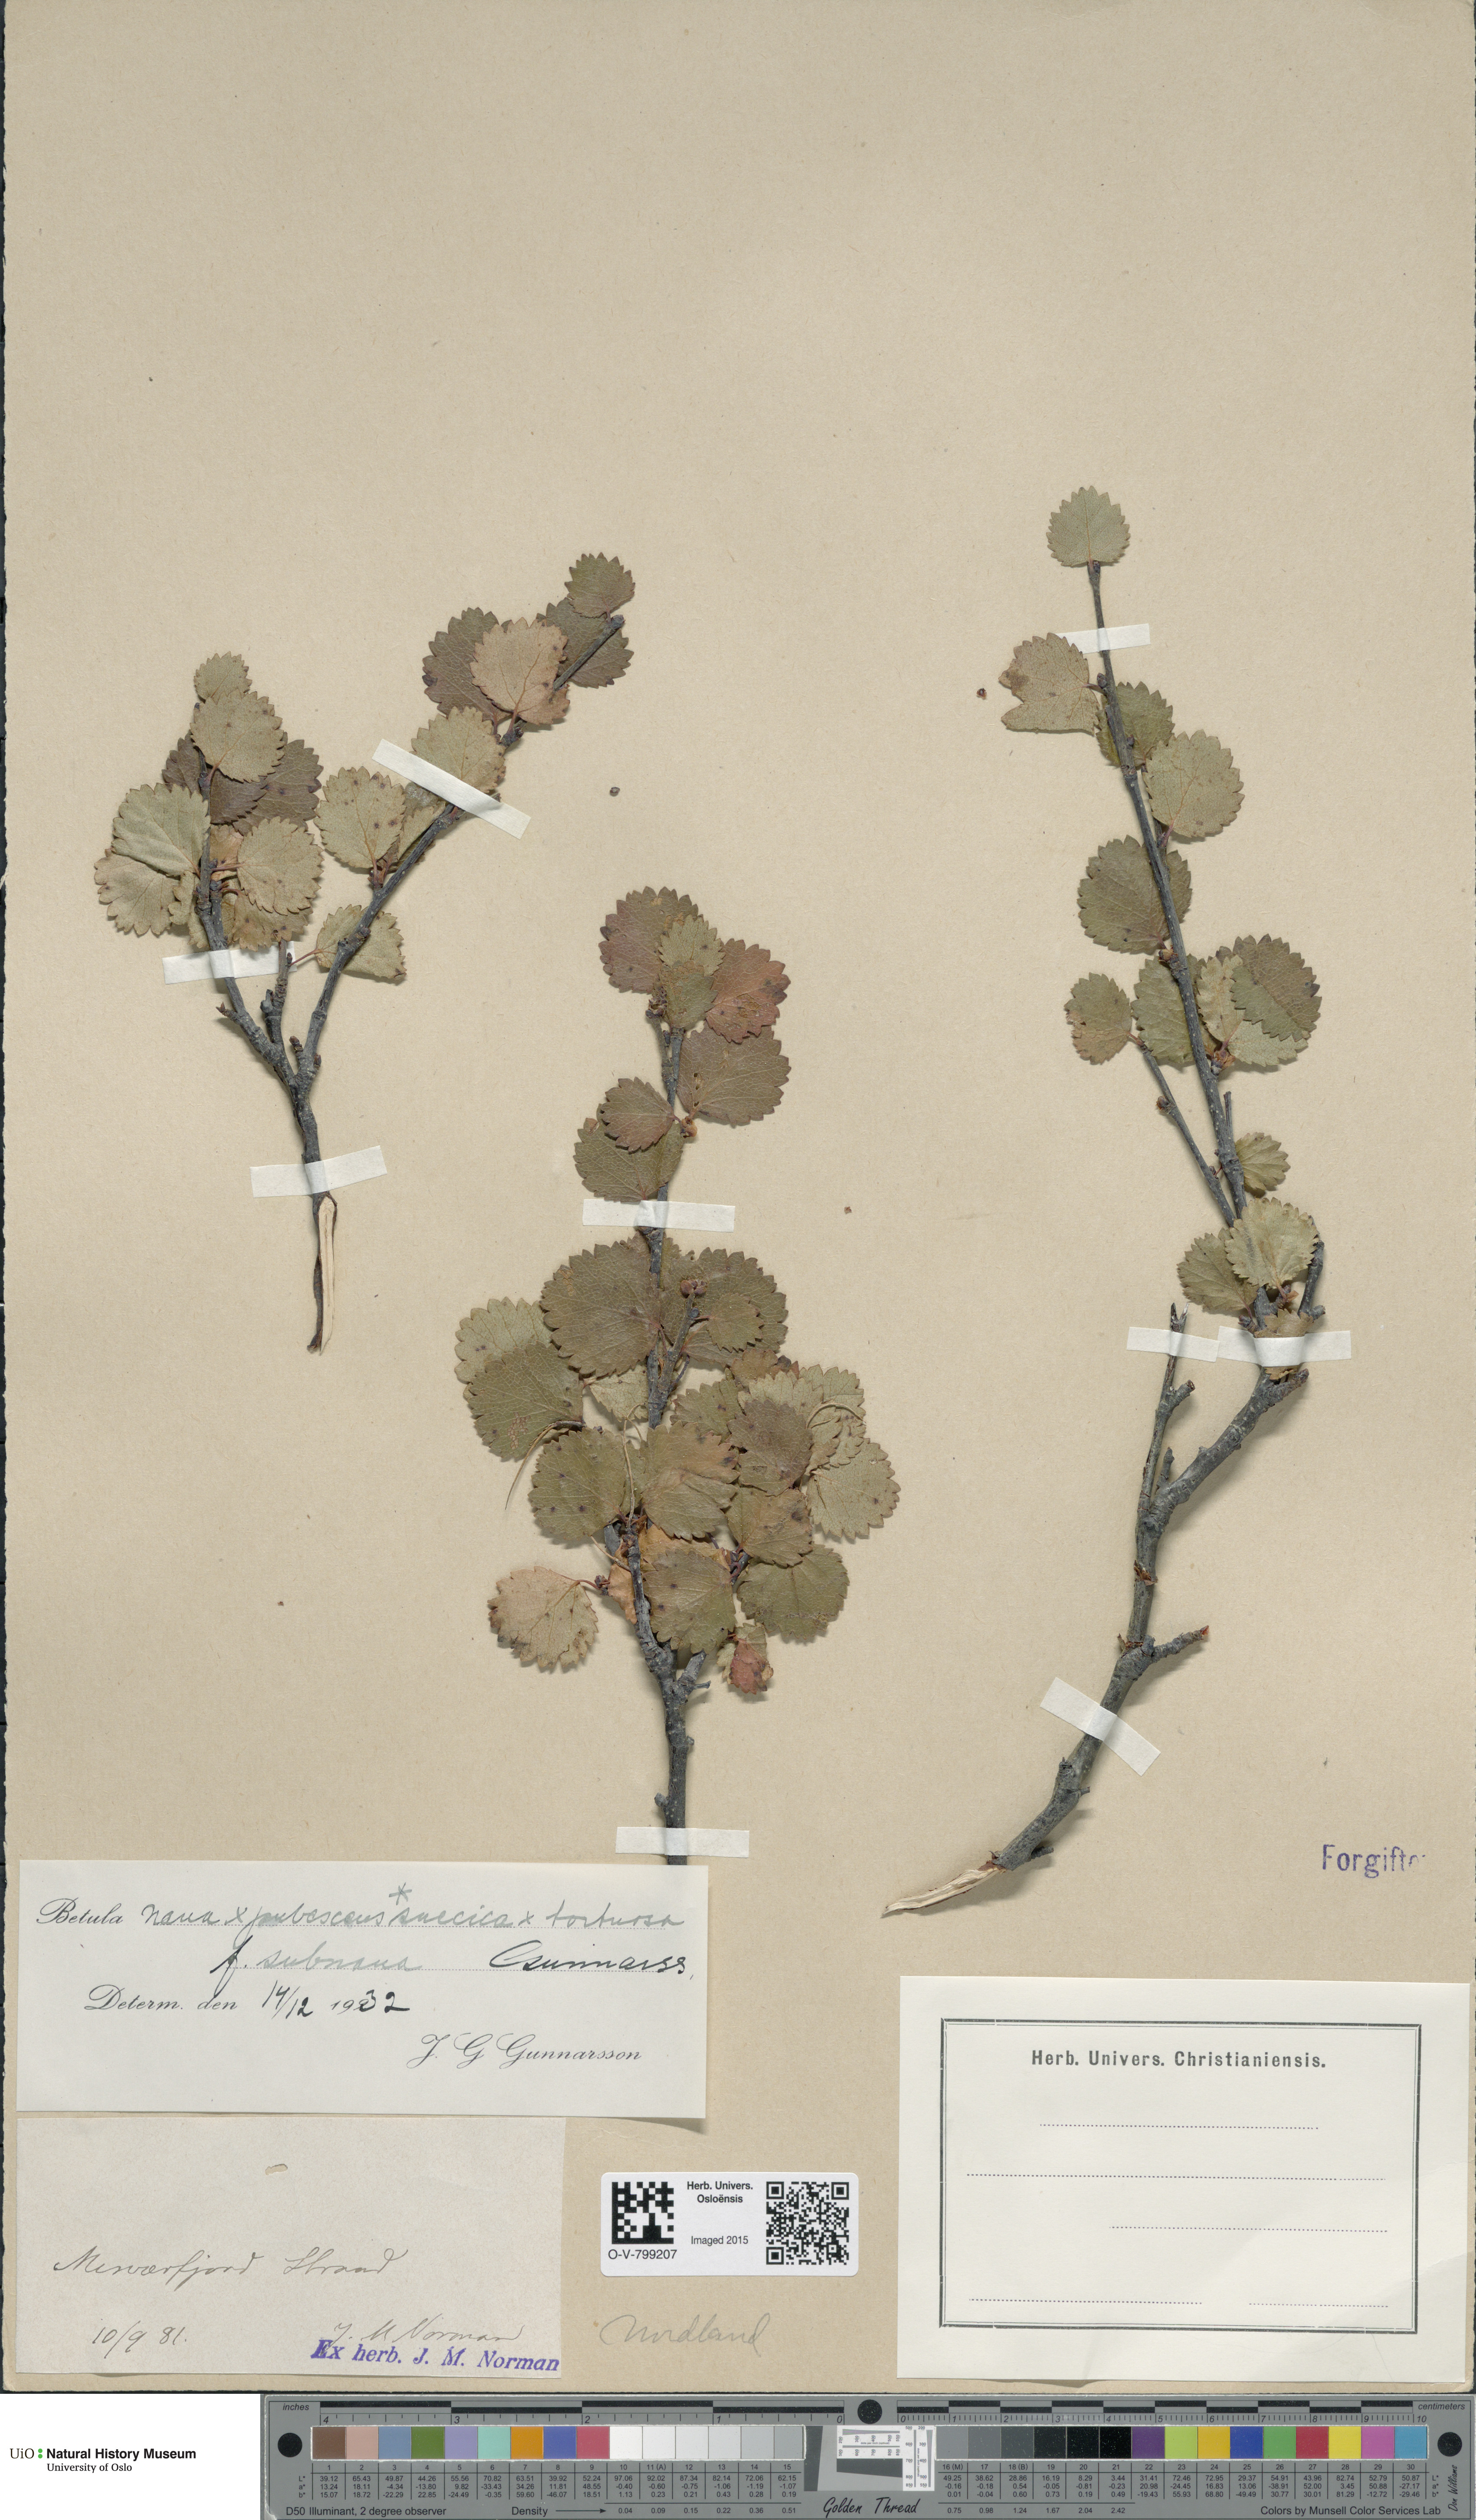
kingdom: Plantae
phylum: Tracheophyta
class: Magnoliopsida
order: Fagales
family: Betulaceae
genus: Betula
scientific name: Betula nana
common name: Arctic dwarf birch
